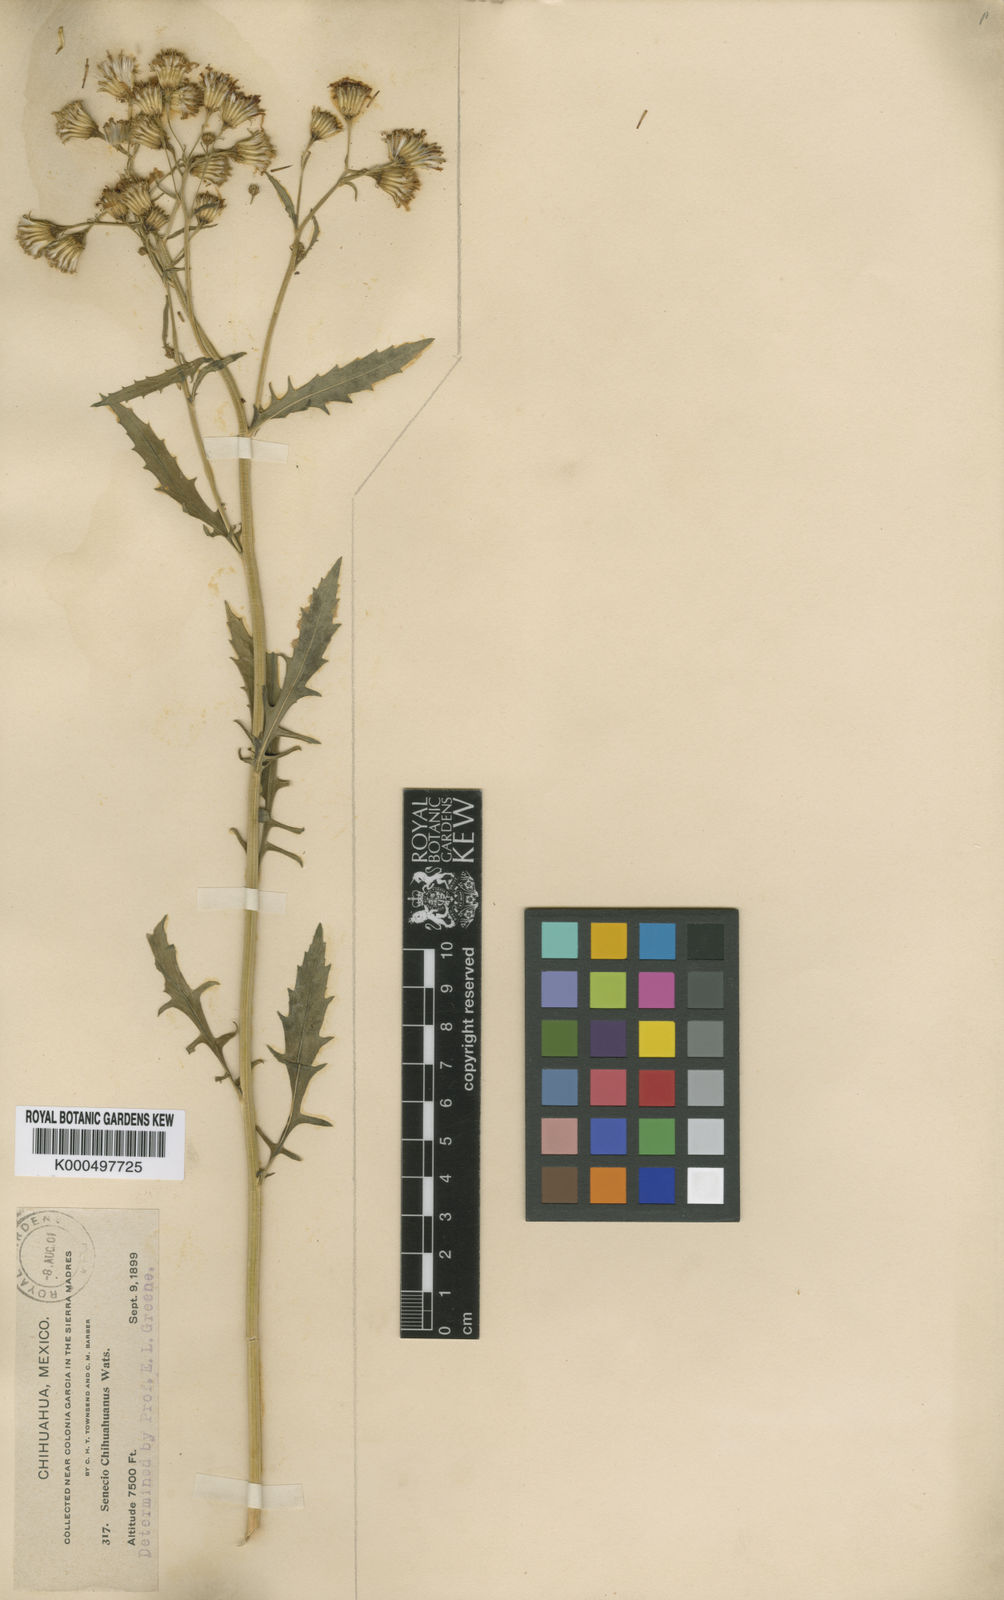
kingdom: Plantae
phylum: Tracheophyta
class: Magnoliopsida
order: Asterales
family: Asteraceae
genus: Senecio
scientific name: Senecio townsendii
